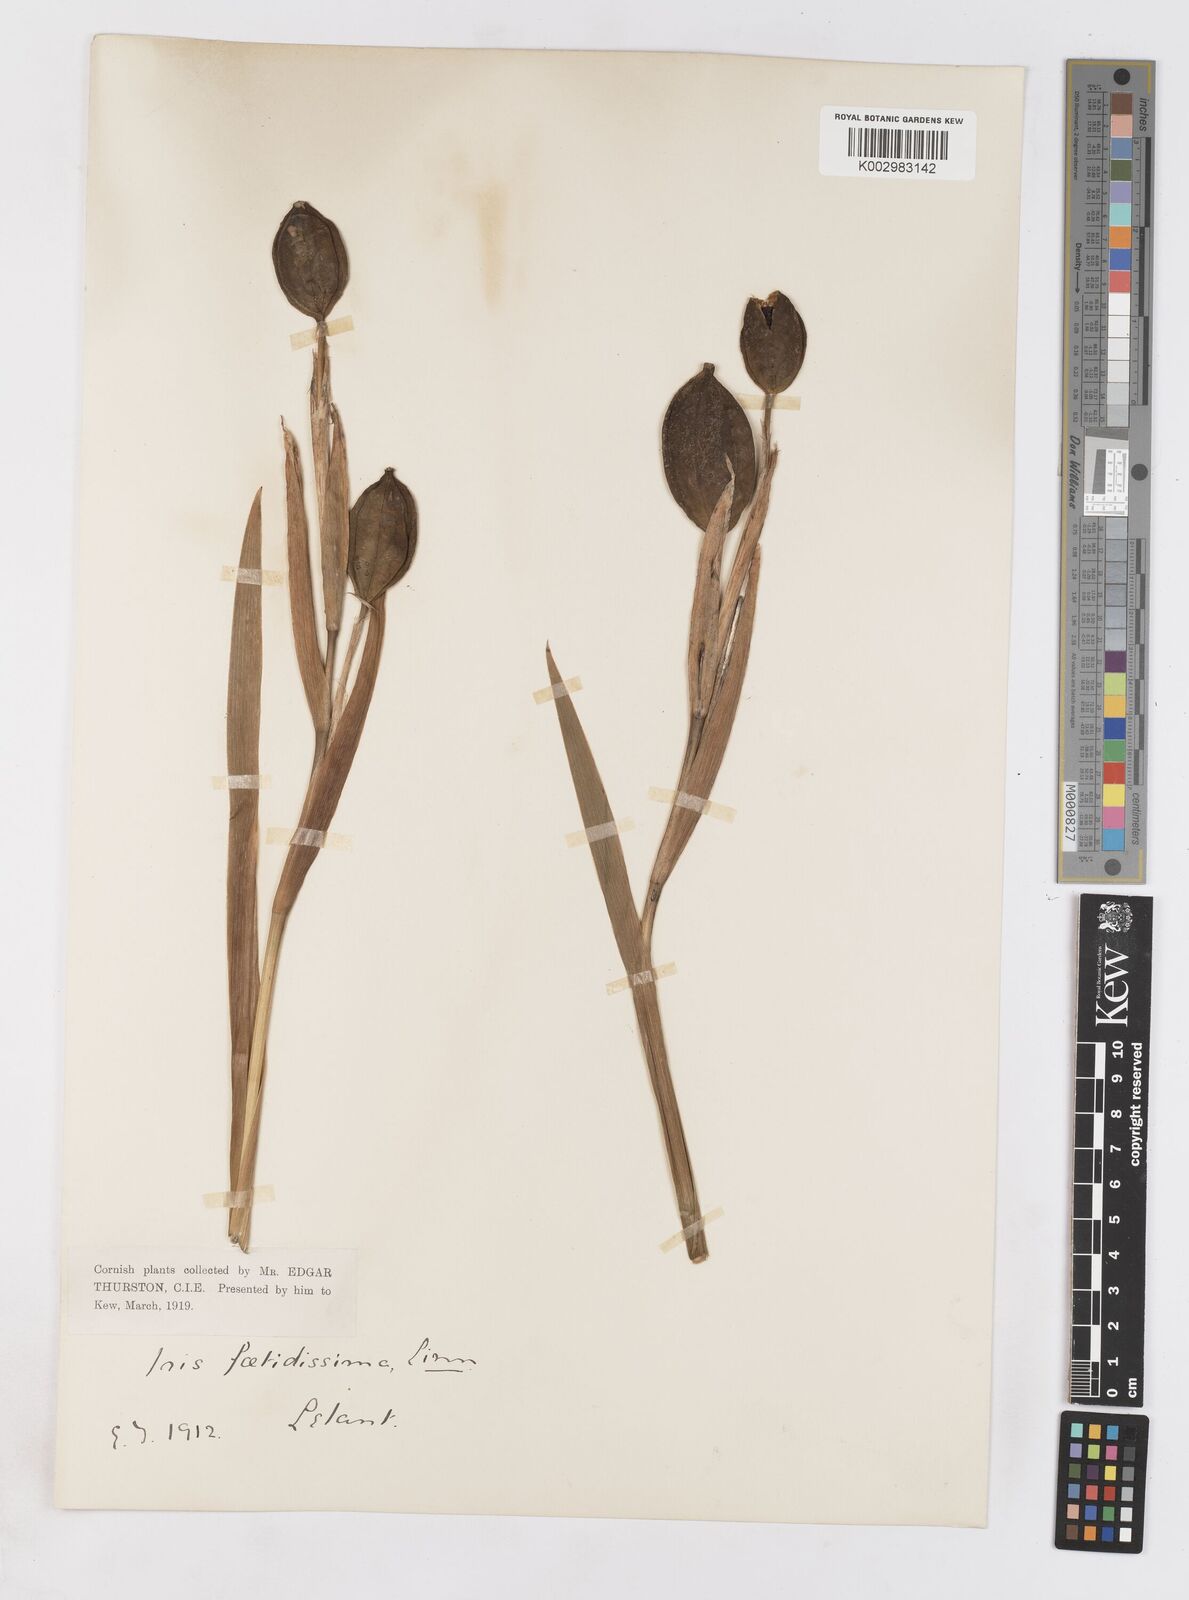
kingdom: Plantae
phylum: Tracheophyta
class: Liliopsida
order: Asparagales
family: Iridaceae
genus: Iris
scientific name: Iris foetidissima
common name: Stinking iris
